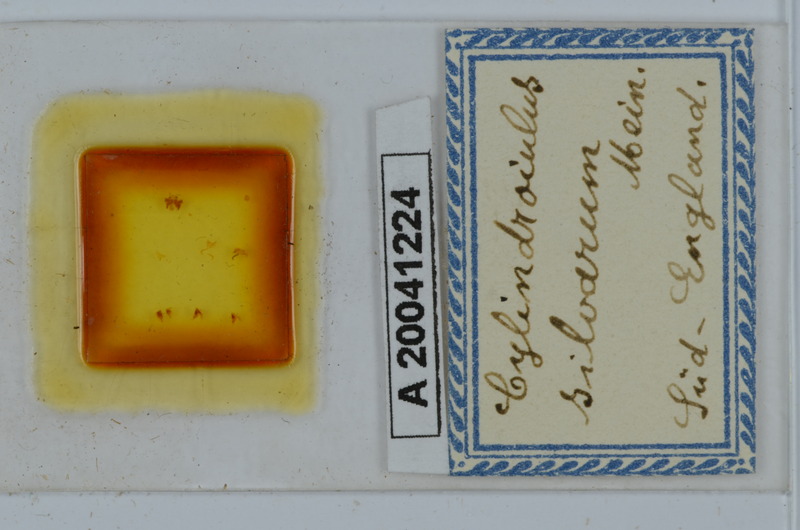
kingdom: Animalia
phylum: Arthropoda
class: Diplopoda
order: Julida
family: Julidae
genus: Cylindroiulus
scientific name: Cylindroiulus punctatus
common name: Blunt-tailed millipede
